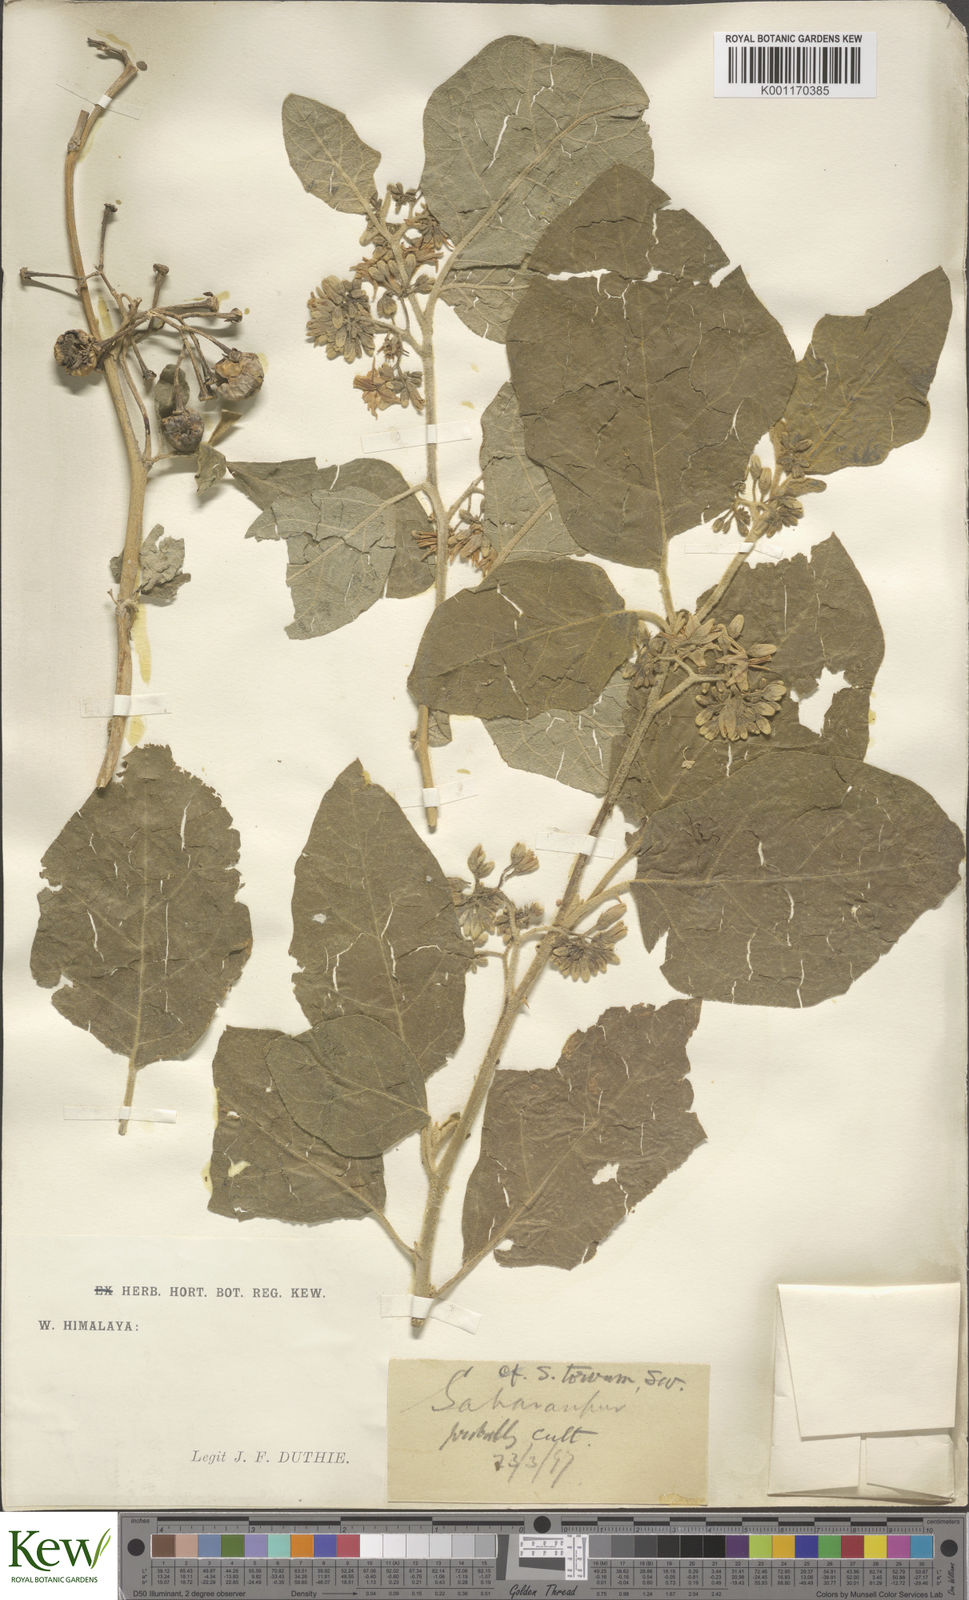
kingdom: Plantae
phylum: Tracheophyta
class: Magnoliopsida
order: Solanales
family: Solanaceae
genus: Solanum
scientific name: Solanum torvum
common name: Turkey berry
